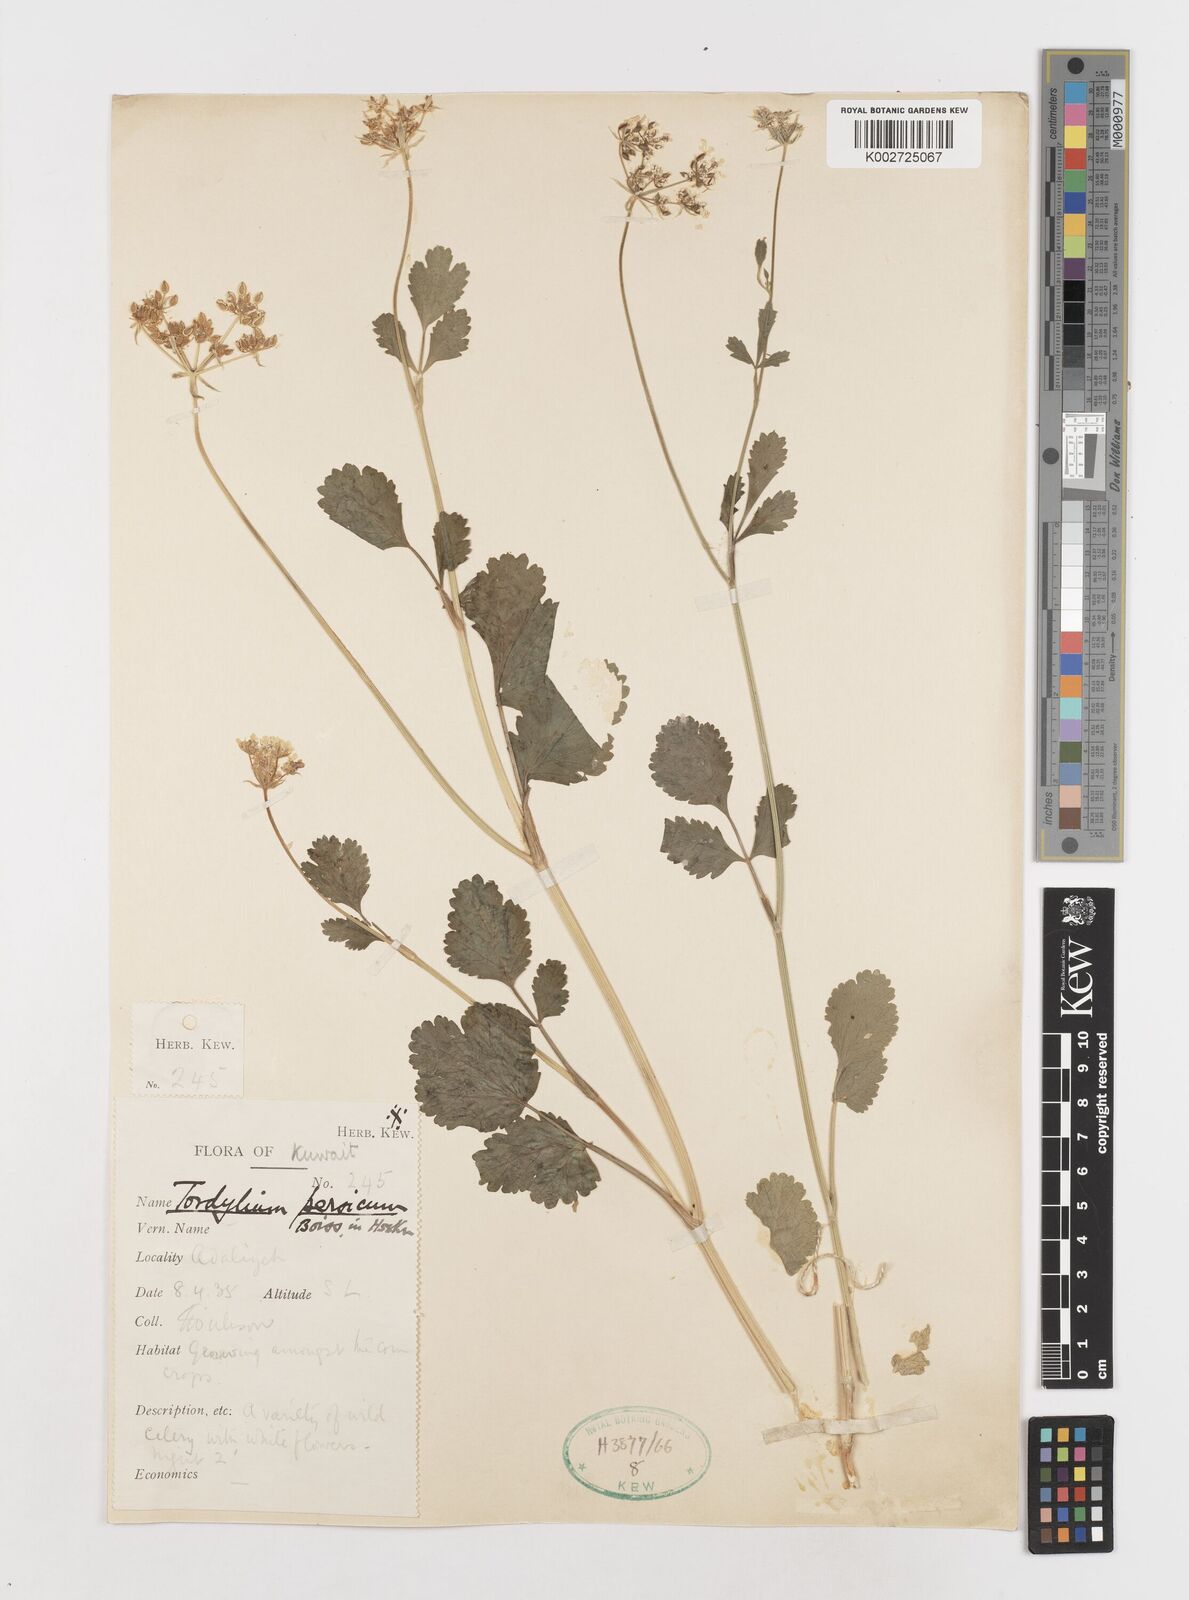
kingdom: Plantae
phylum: Tracheophyta
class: Magnoliopsida
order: Apiales
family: Apiaceae
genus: Tordylium
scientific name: Tordylium cappadocicum
